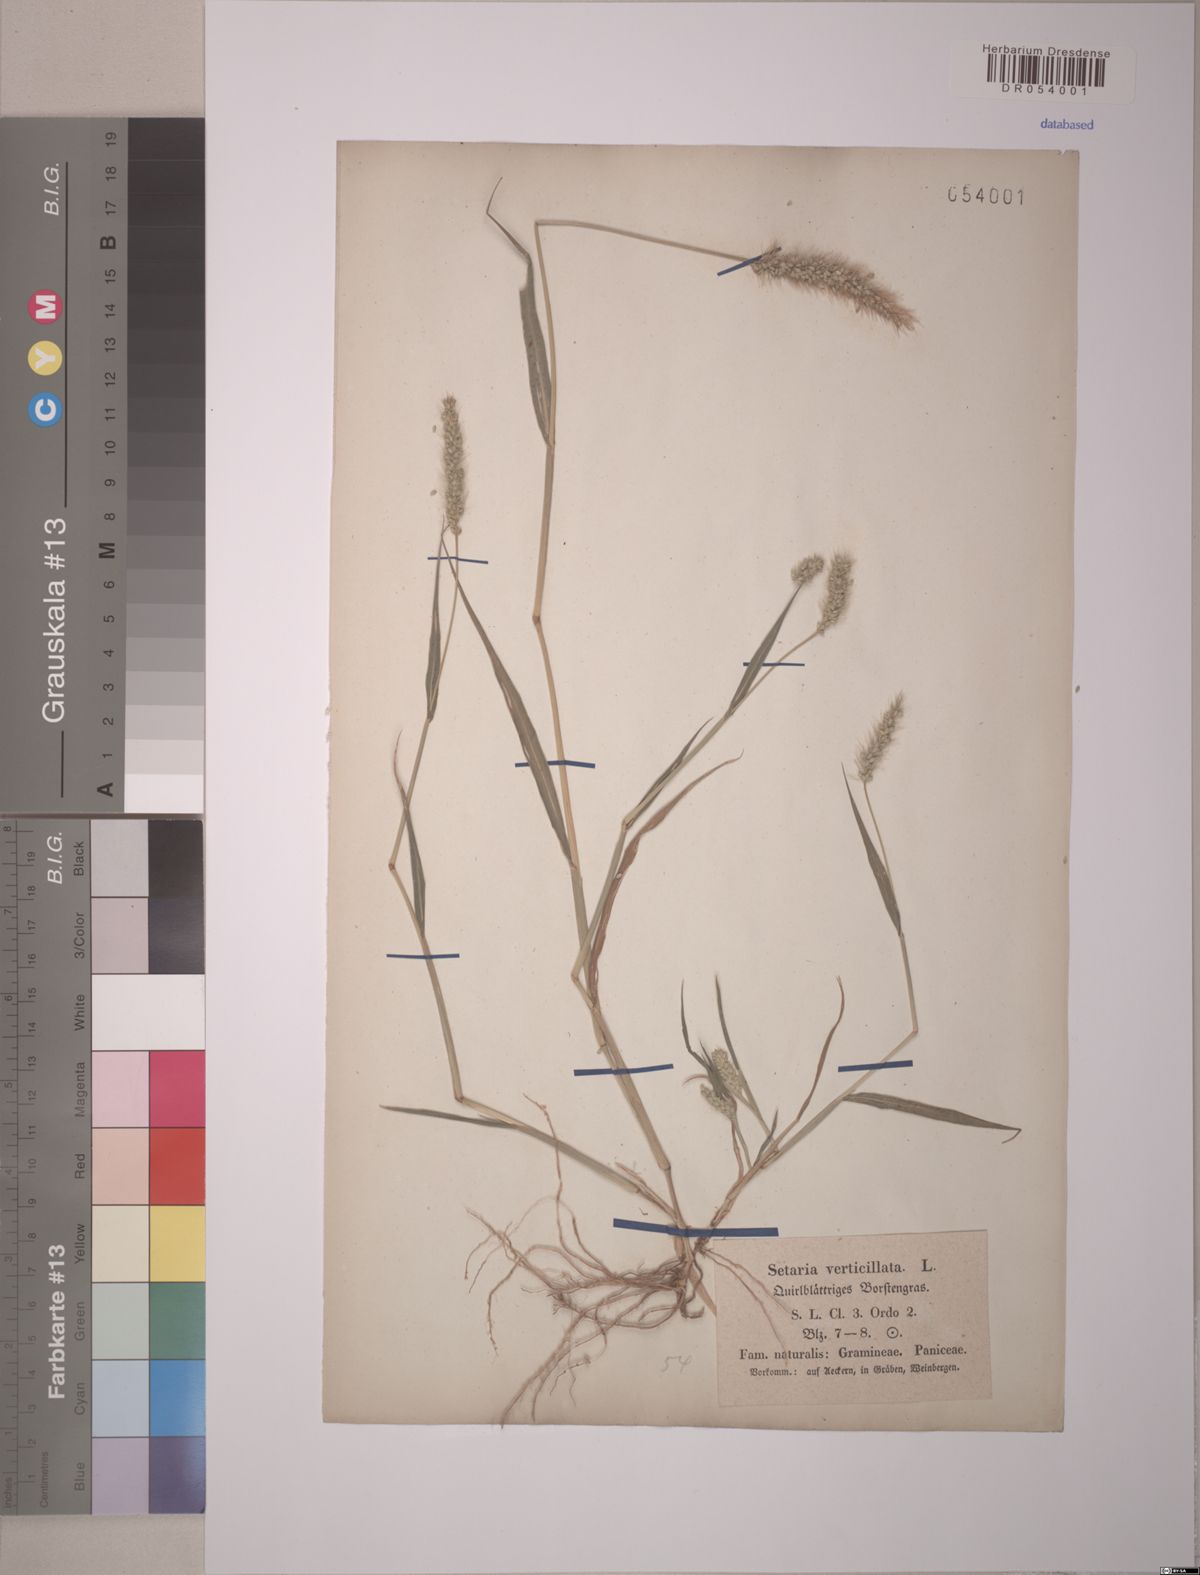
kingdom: Plantae
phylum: Tracheophyta
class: Liliopsida
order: Poales
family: Poaceae
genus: Setaria
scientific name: Setaria verticillata
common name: Hooked bristlegrass
